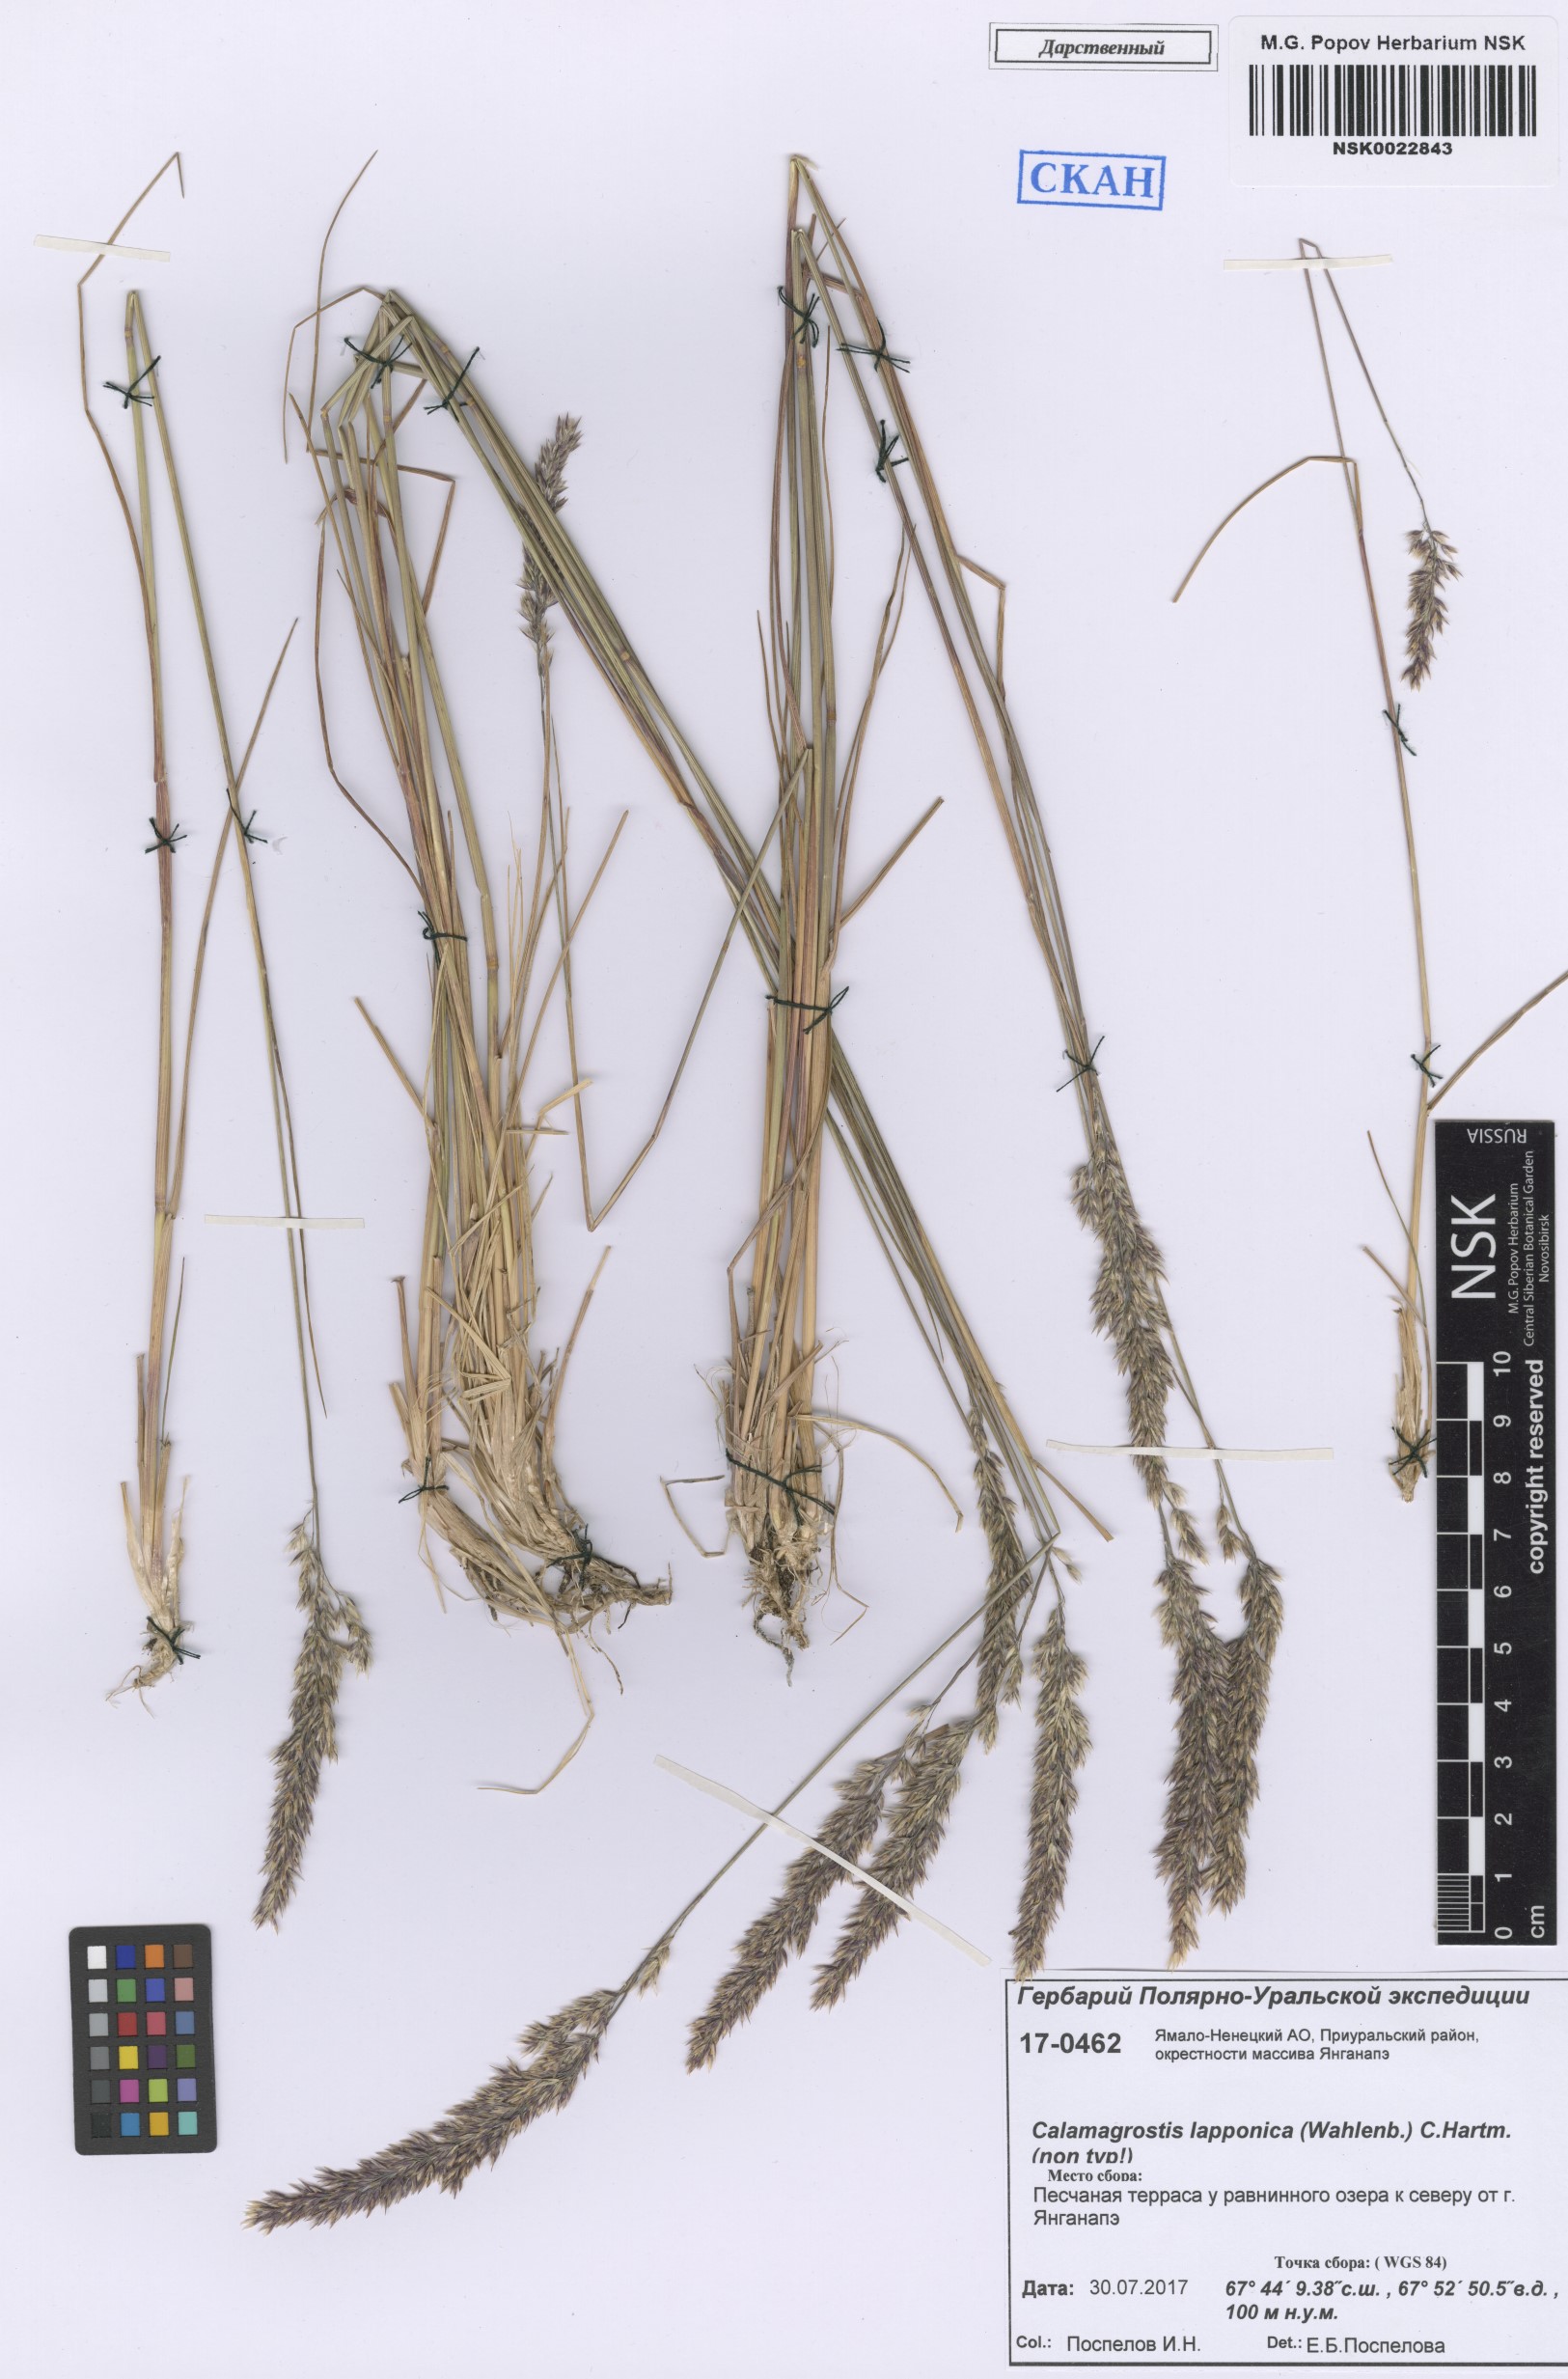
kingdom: Plantae
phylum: Tracheophyta
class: Liliopsida
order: Poales
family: Poaceae
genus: Calamagrostis
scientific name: Calamagrostis lapponica
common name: Lapland reedgrass
